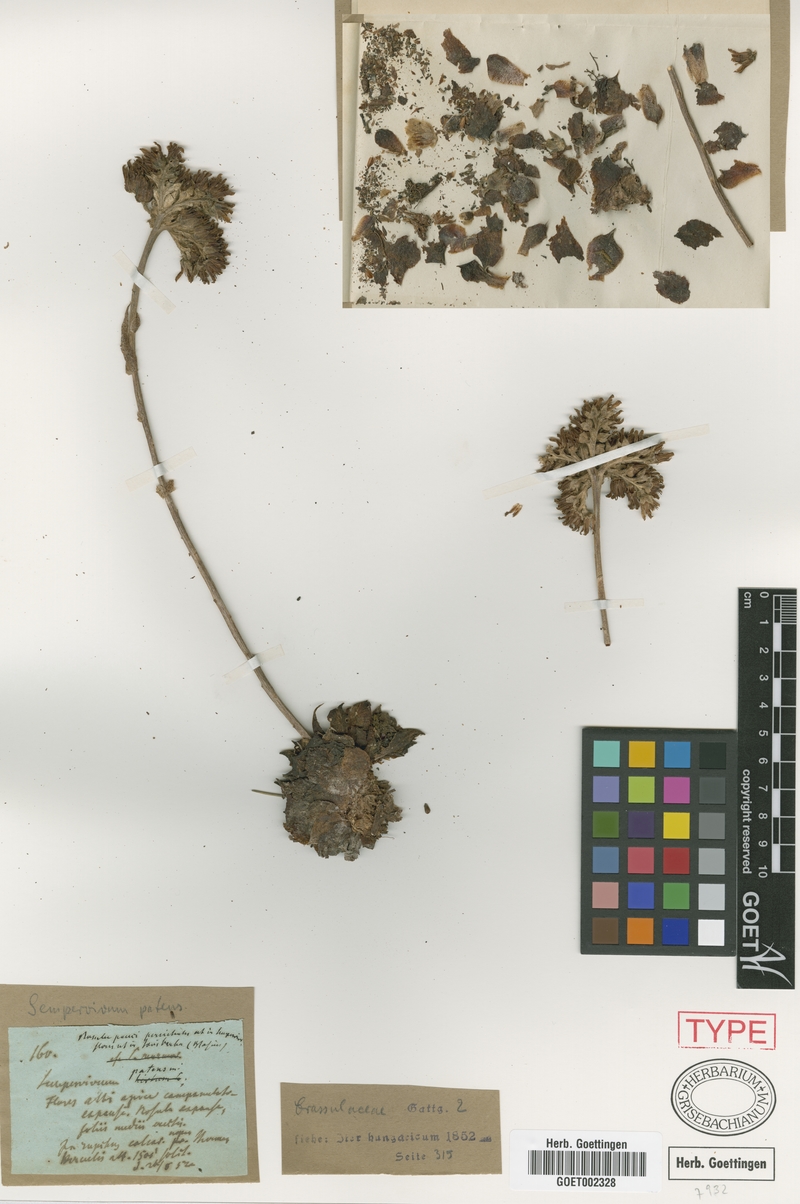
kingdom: Plantae
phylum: Tracheophyta
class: Magnoliopsida
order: Saxifragales
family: Crassulaceae
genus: Sempervivum
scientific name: Sempervivum heuffelii
